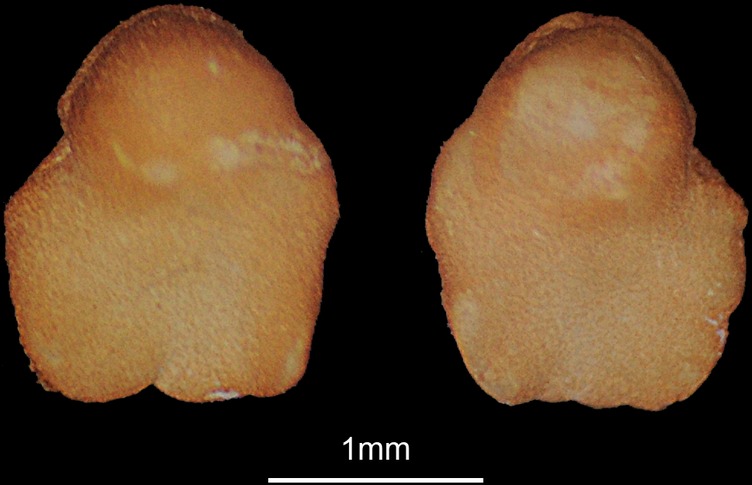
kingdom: Animalia
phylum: Chordata
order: Cypriniformes
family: Cyprinidae
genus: Rutilus
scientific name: Rutilus rutilus
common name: Roach
